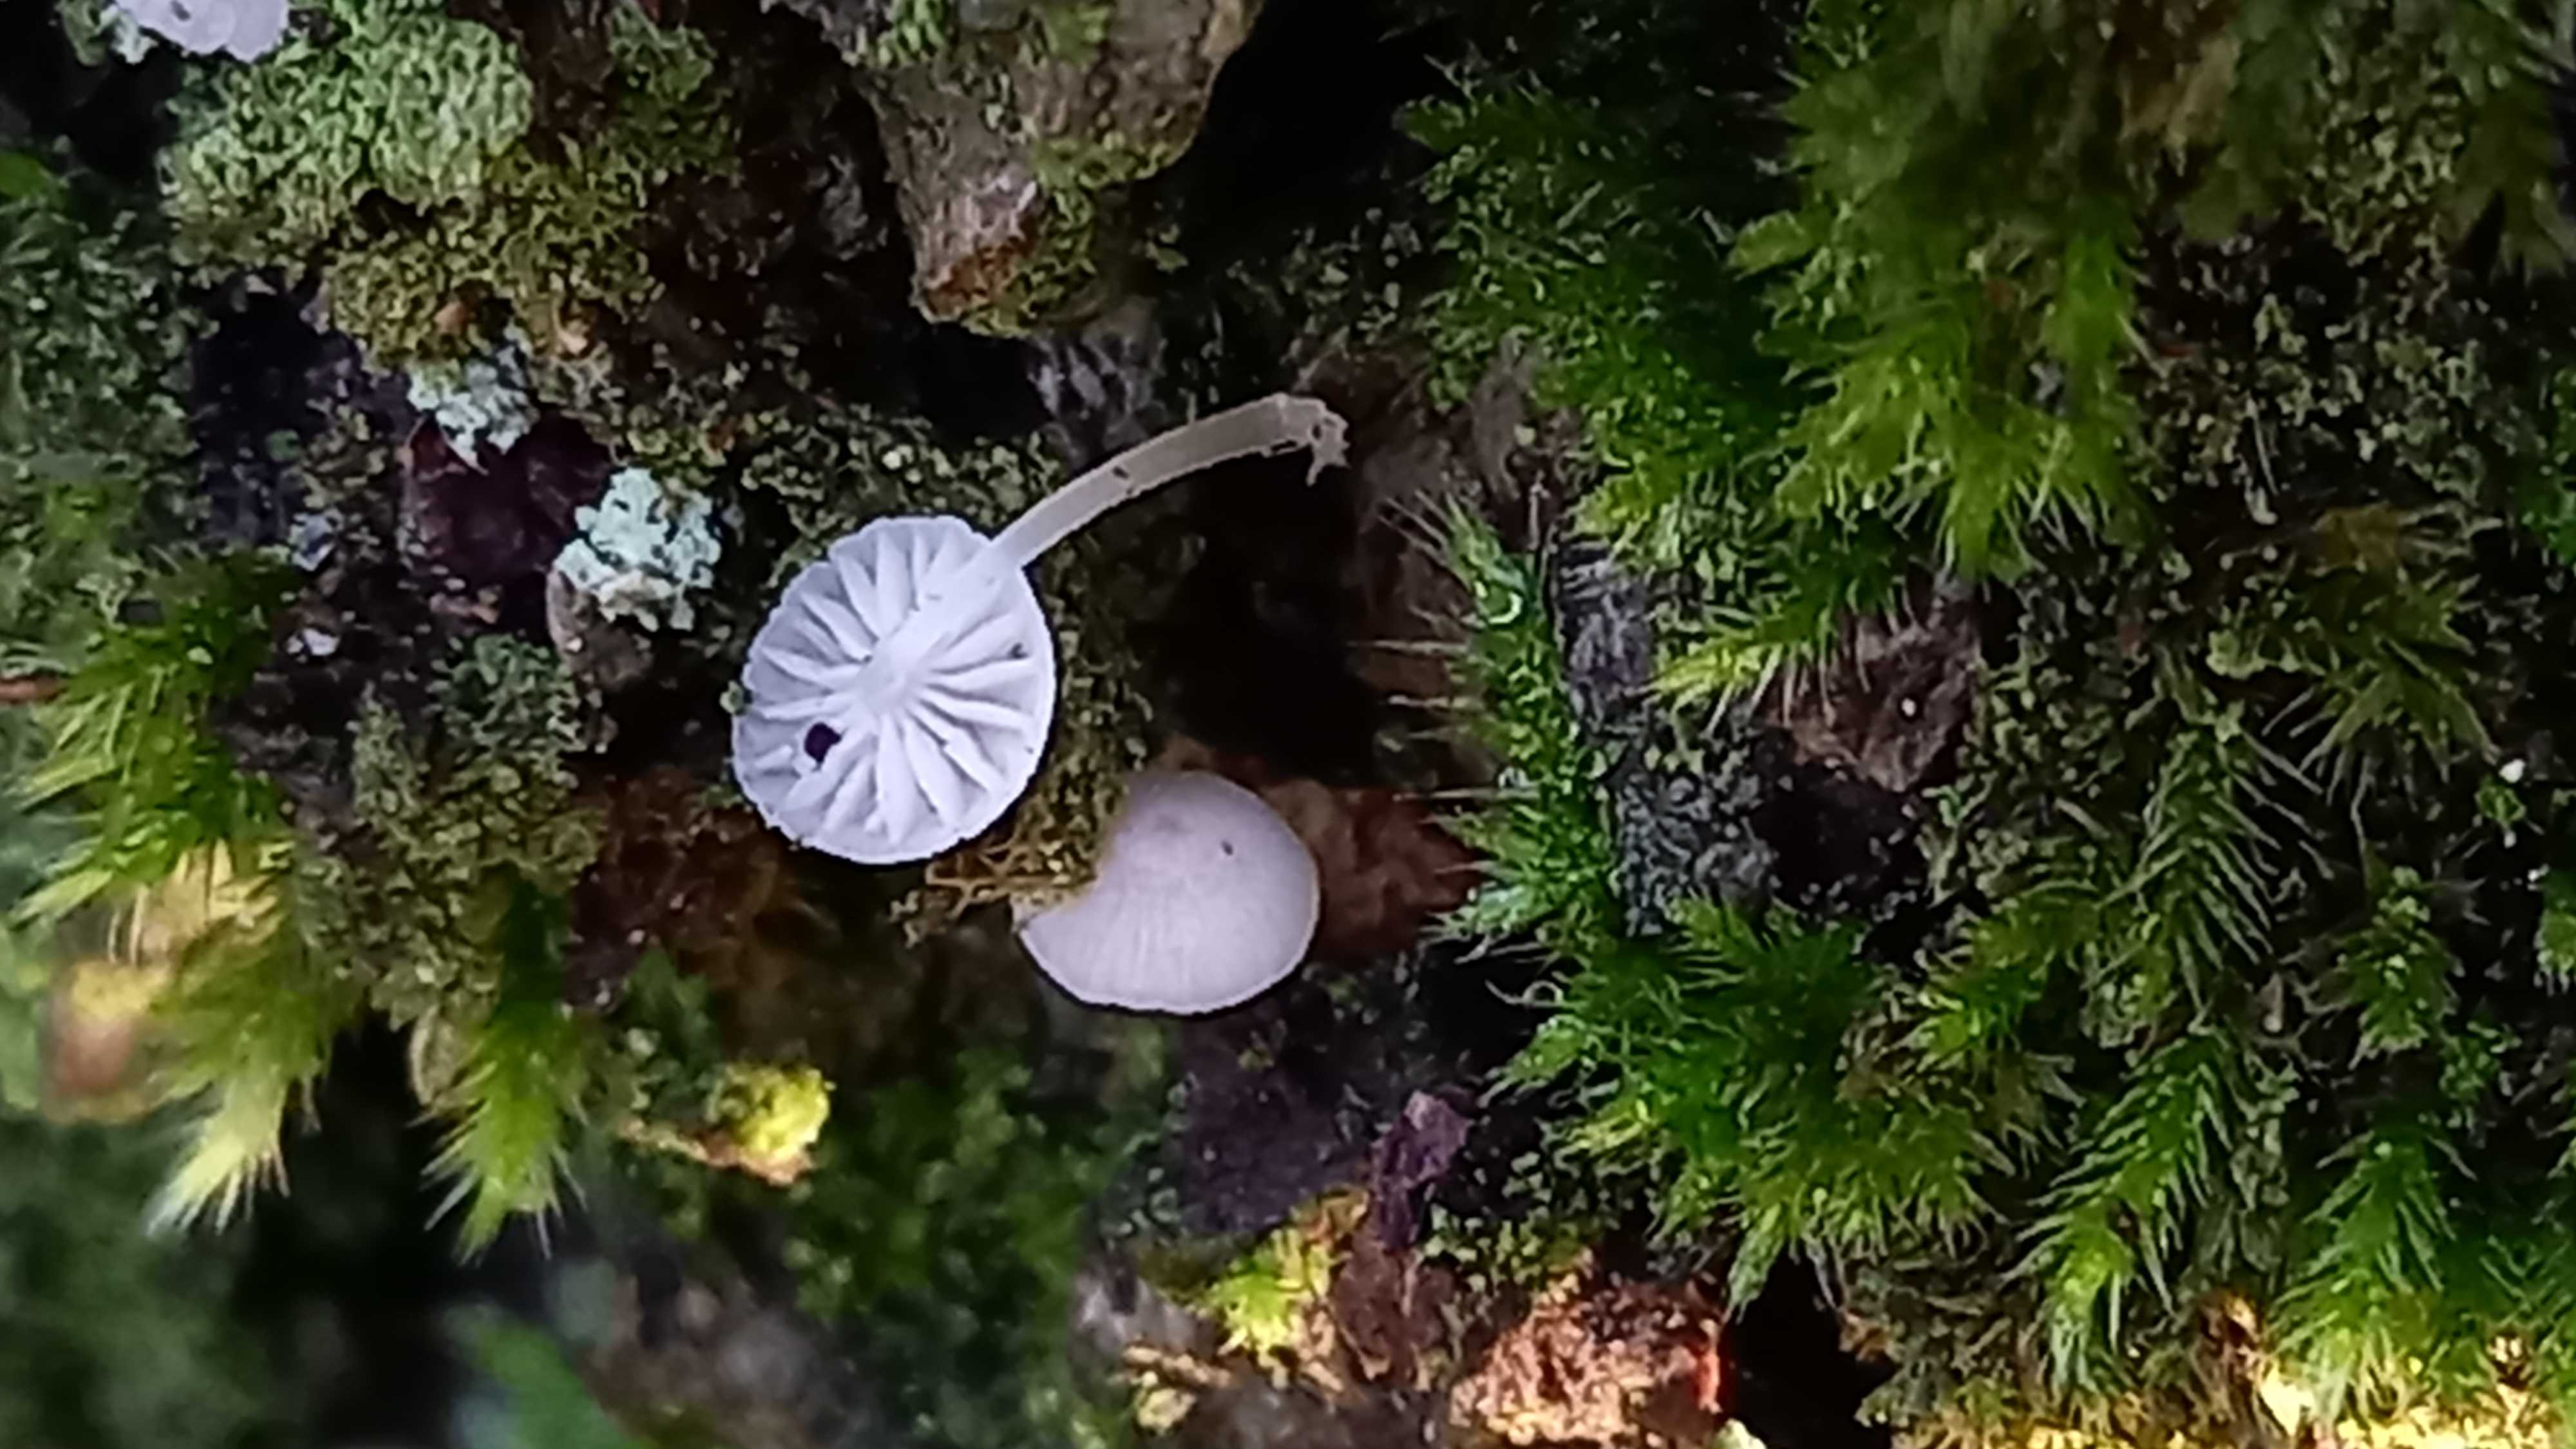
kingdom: Fungi
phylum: Basidiomycota
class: Agaricomycetes
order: Agaricales
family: Porotheleaceae
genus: Phloeomana
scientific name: Phloeomana hiemalis
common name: sen huesvamp
